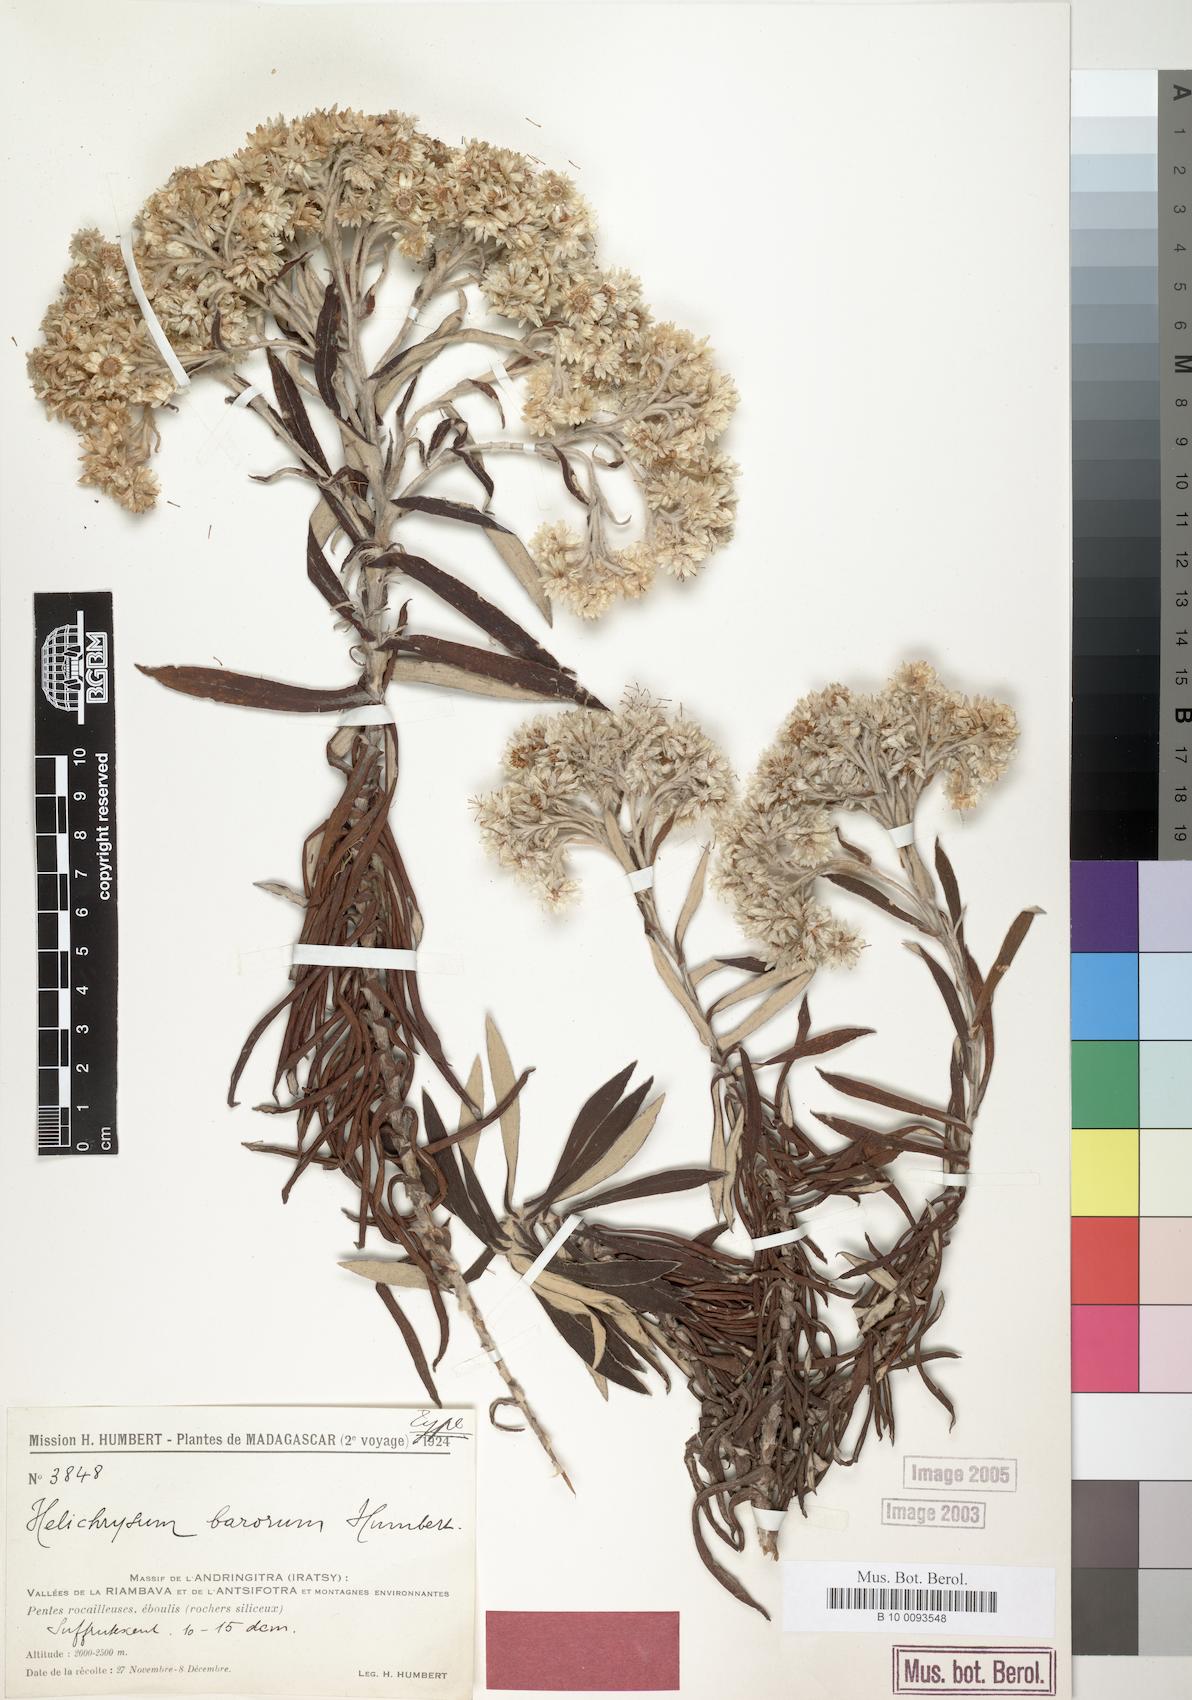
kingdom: Plantae
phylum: Tracheophyta
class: Magnoliopsida
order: Asterales
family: Asteraceae
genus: Helichrysum
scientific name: Helichrysum barorum
